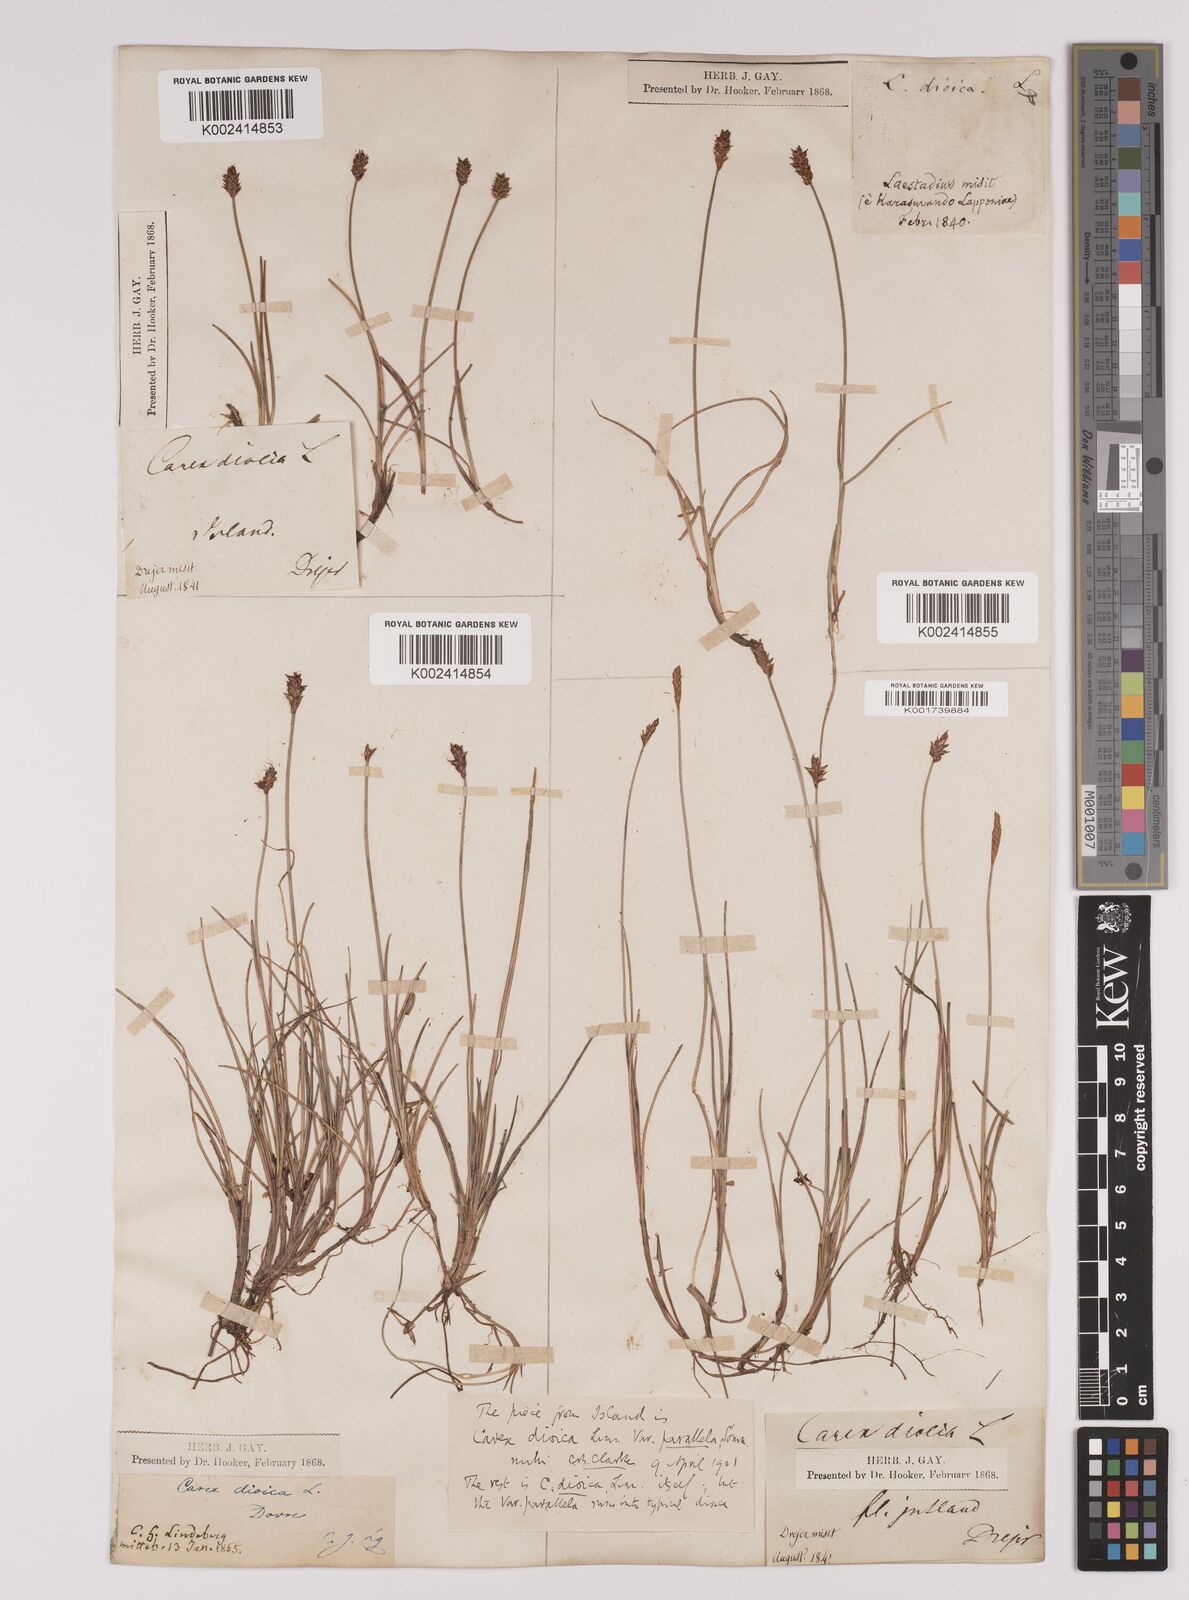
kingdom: Plantae
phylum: Tracheophyta
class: Liliopsida
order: Poales
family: Cyperaceae
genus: Carex
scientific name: Carex dioica
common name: Dioecious sedge
